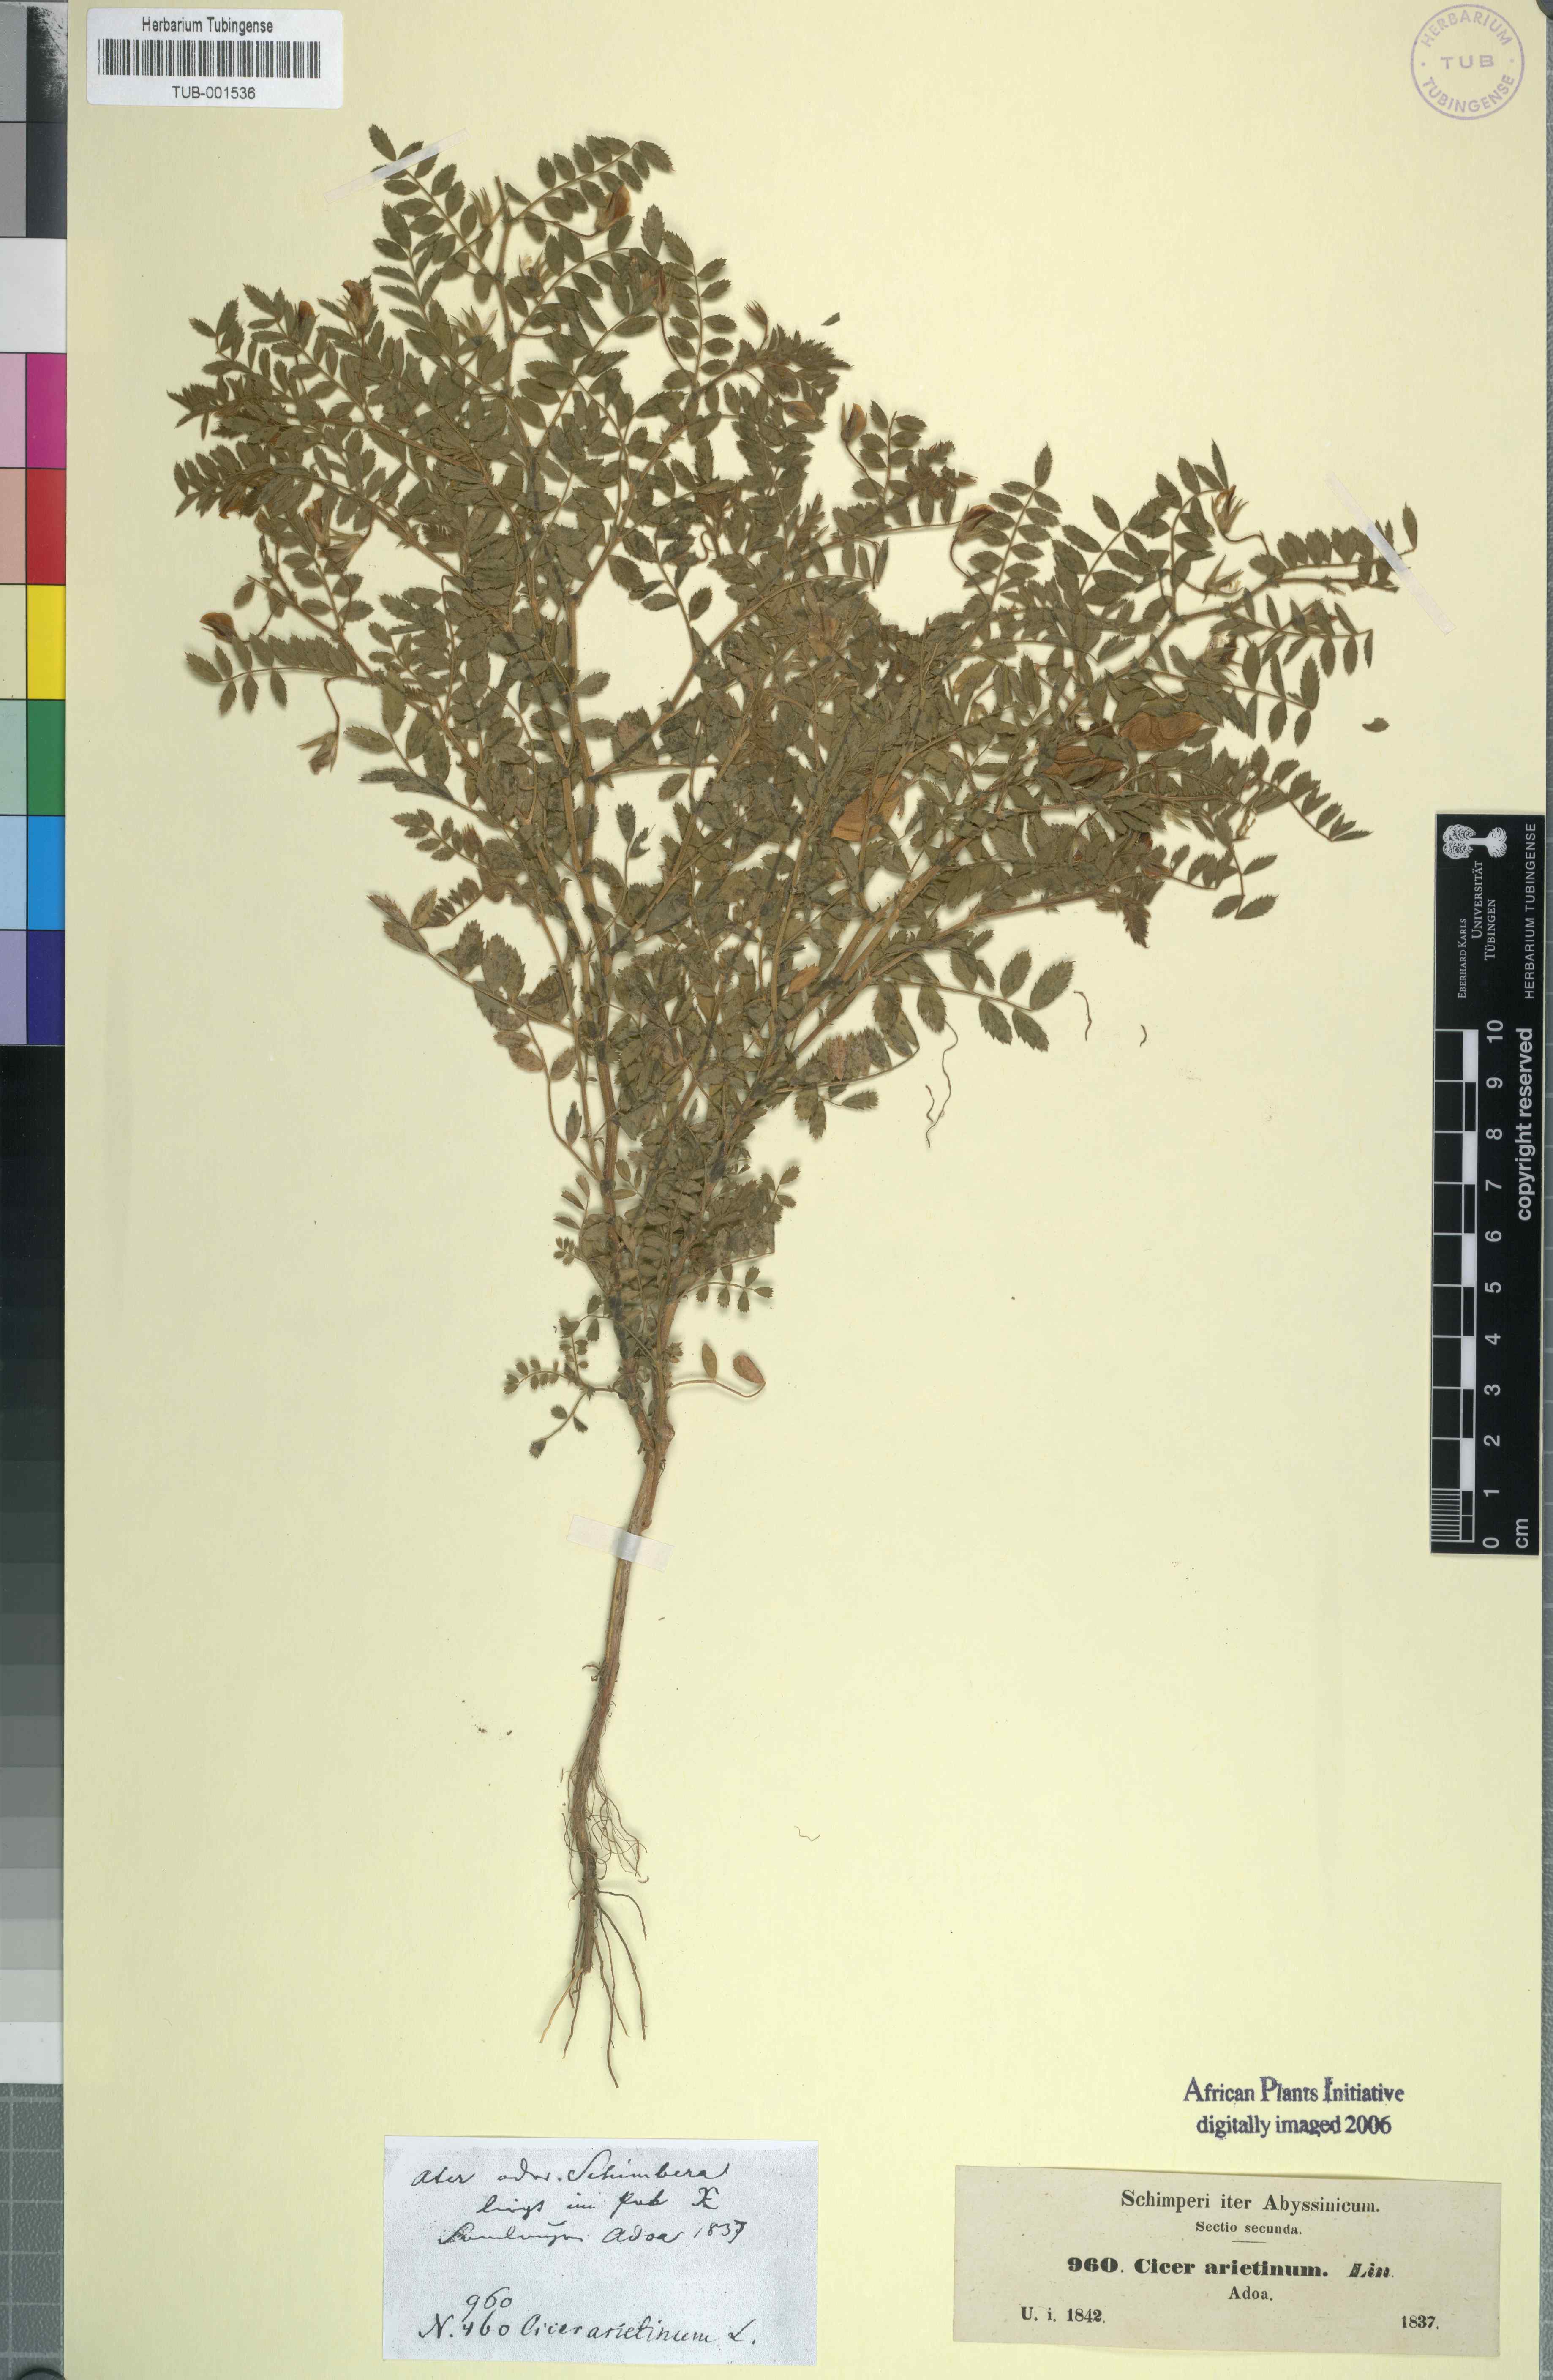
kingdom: Plantae
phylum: Tracheophyta
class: Magnoliopsida
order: Fabales
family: Fabaceae
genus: Cicer
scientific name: Cicer arietinum
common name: Chick pea
